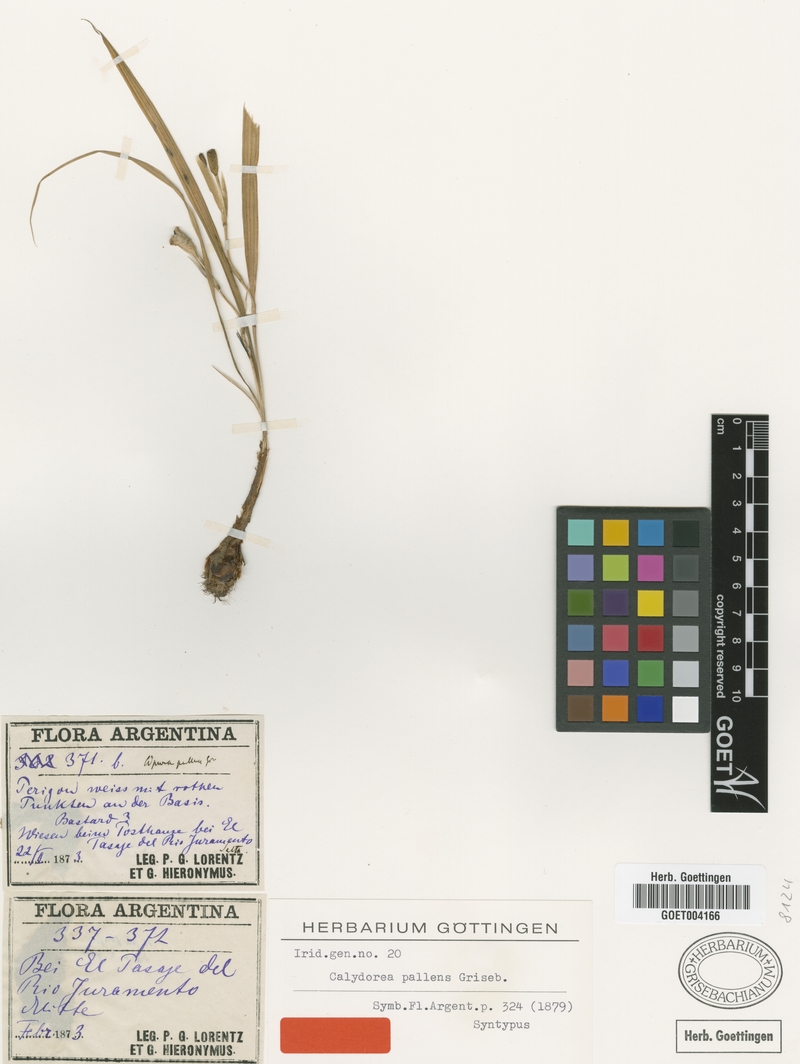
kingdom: Plantae
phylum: Tracheophyta
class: Liliopsida
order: Asparagales
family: Iridaceae
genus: Calydorea
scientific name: Calydorea pallens
